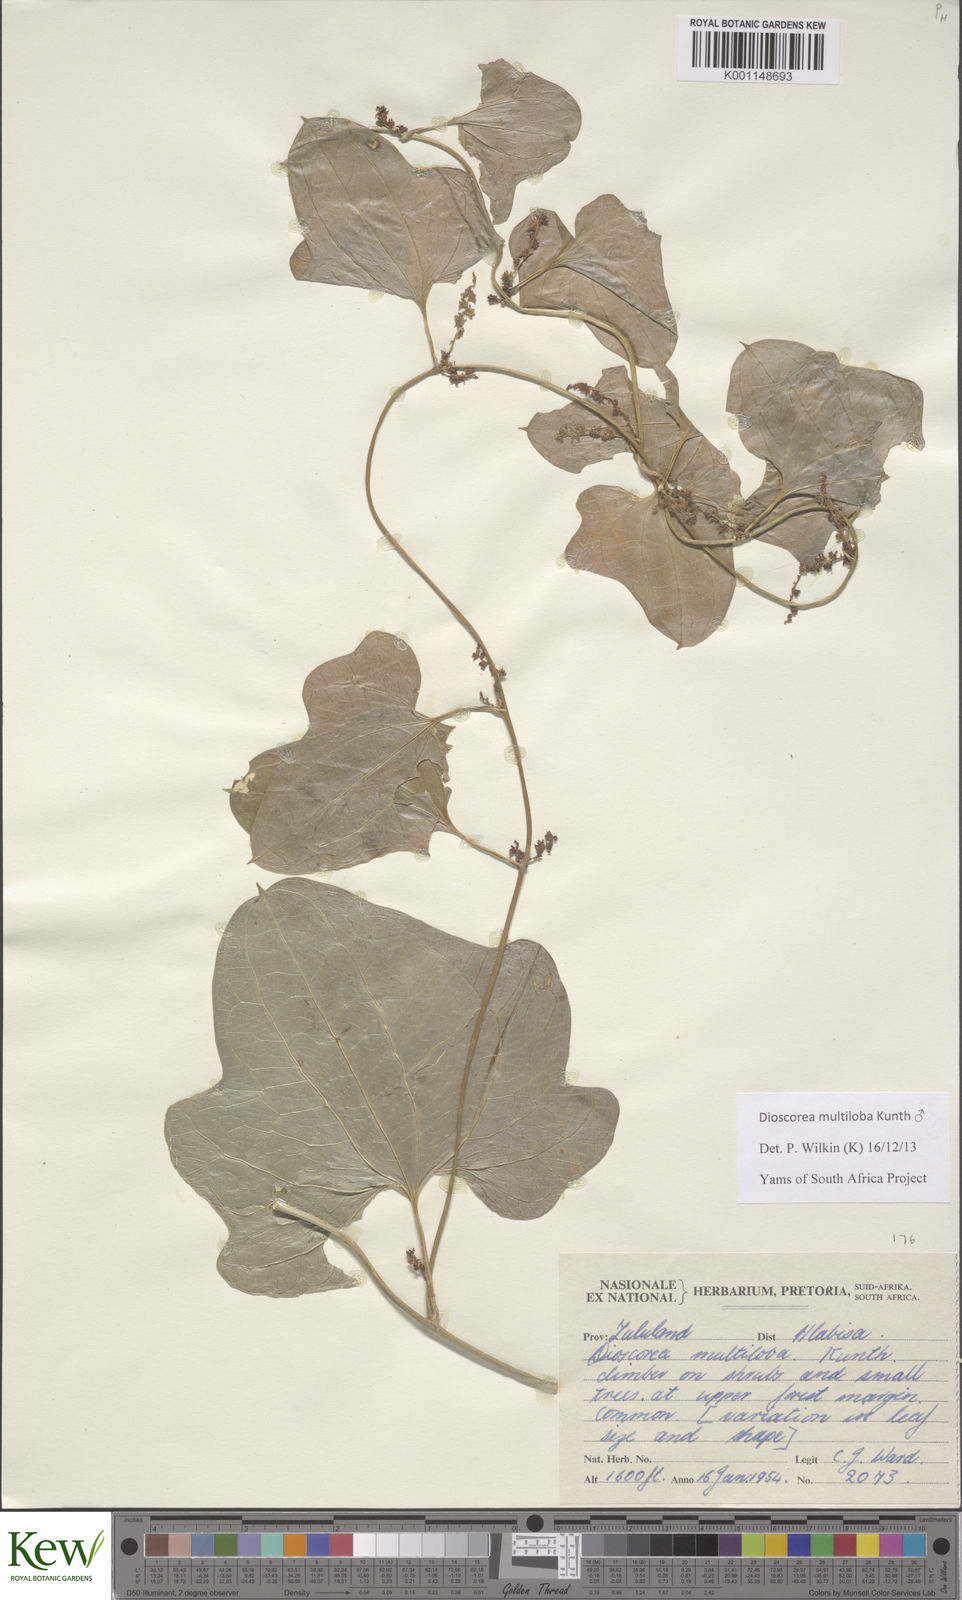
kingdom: Plantae
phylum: Tracheophyta
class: Liliopsida
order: Dioscoreales
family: Dioscoreaceae
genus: Dioscorea
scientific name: Dioscorea multiloba
